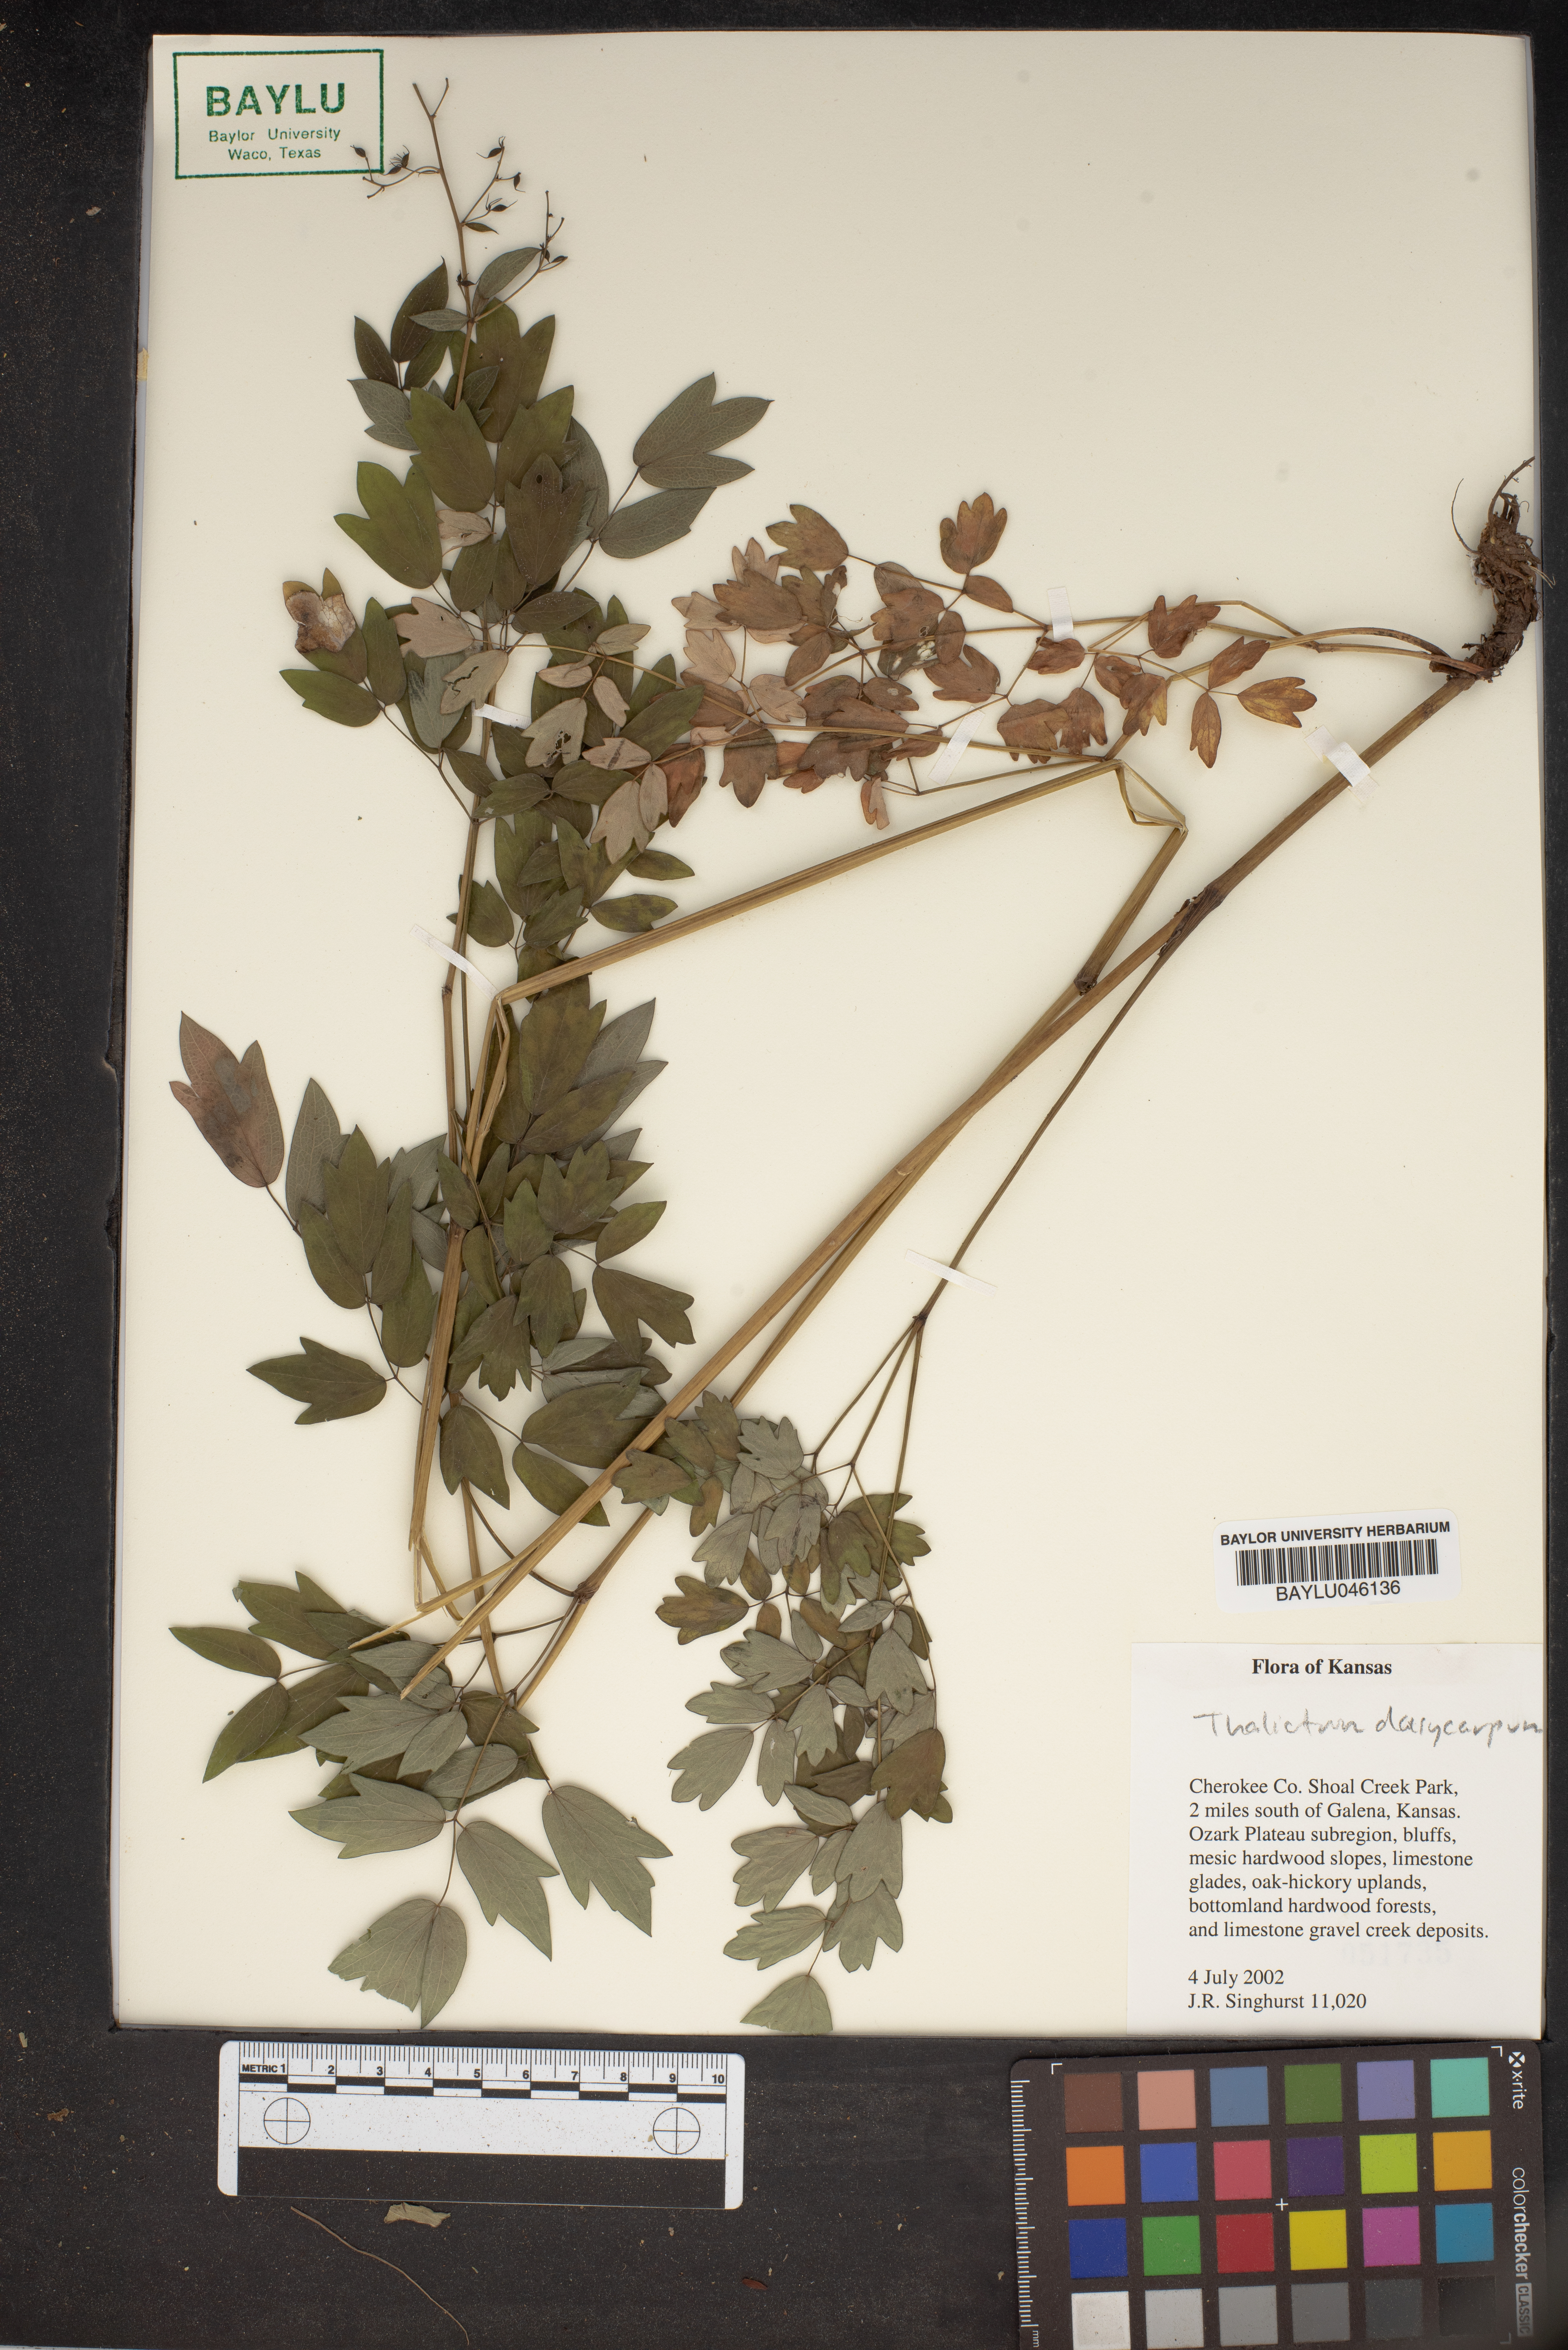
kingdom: Plantae
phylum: Tracheophyta
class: Magnoliopsida
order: Ranunculales
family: Ranunculaceae
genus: Thalictrum
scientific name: Thalictrum dasycarpum
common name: Purple meadow-rue
